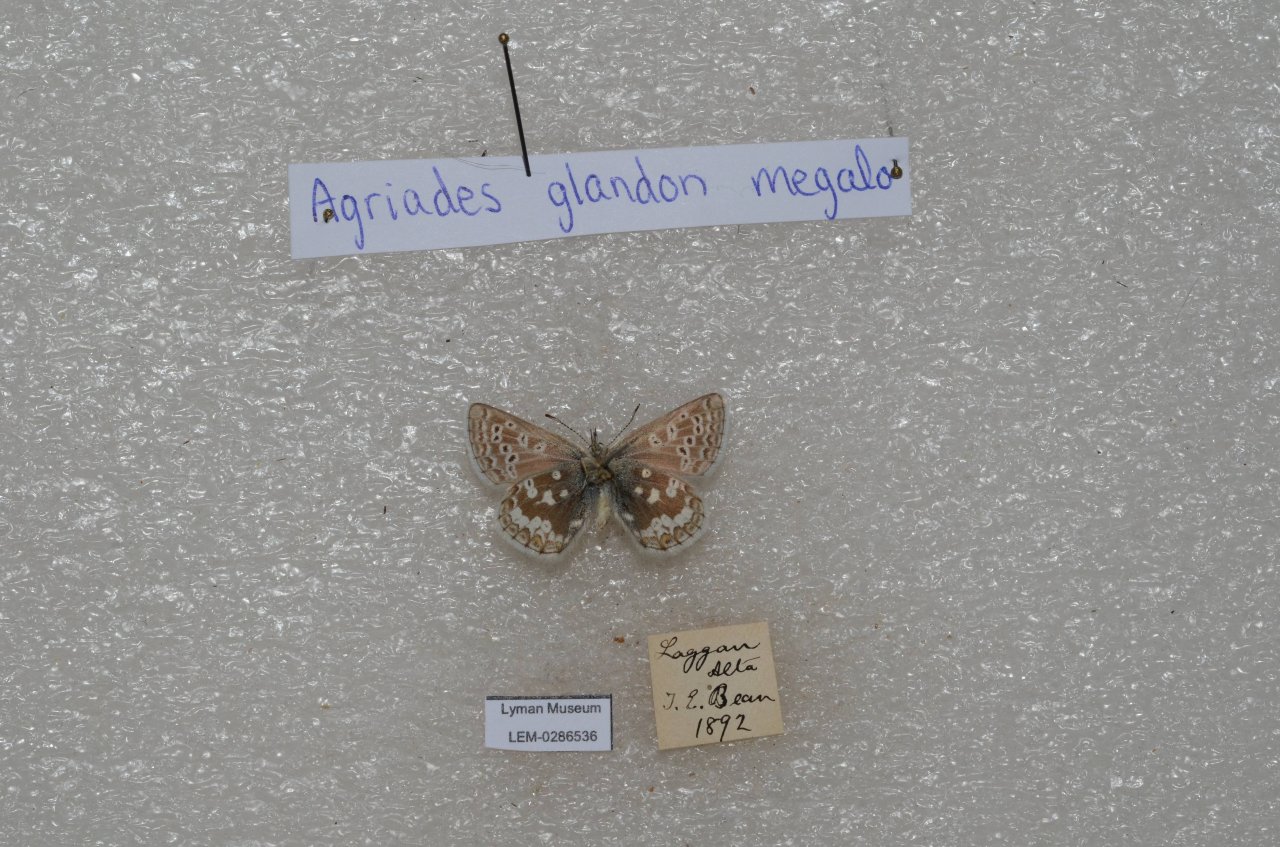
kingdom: Animalia
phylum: Arthropoda
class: Insecta
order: Lepidoptera
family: Lycaenidae
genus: Agriades
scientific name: Agriades glandon
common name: Arctic Blue
